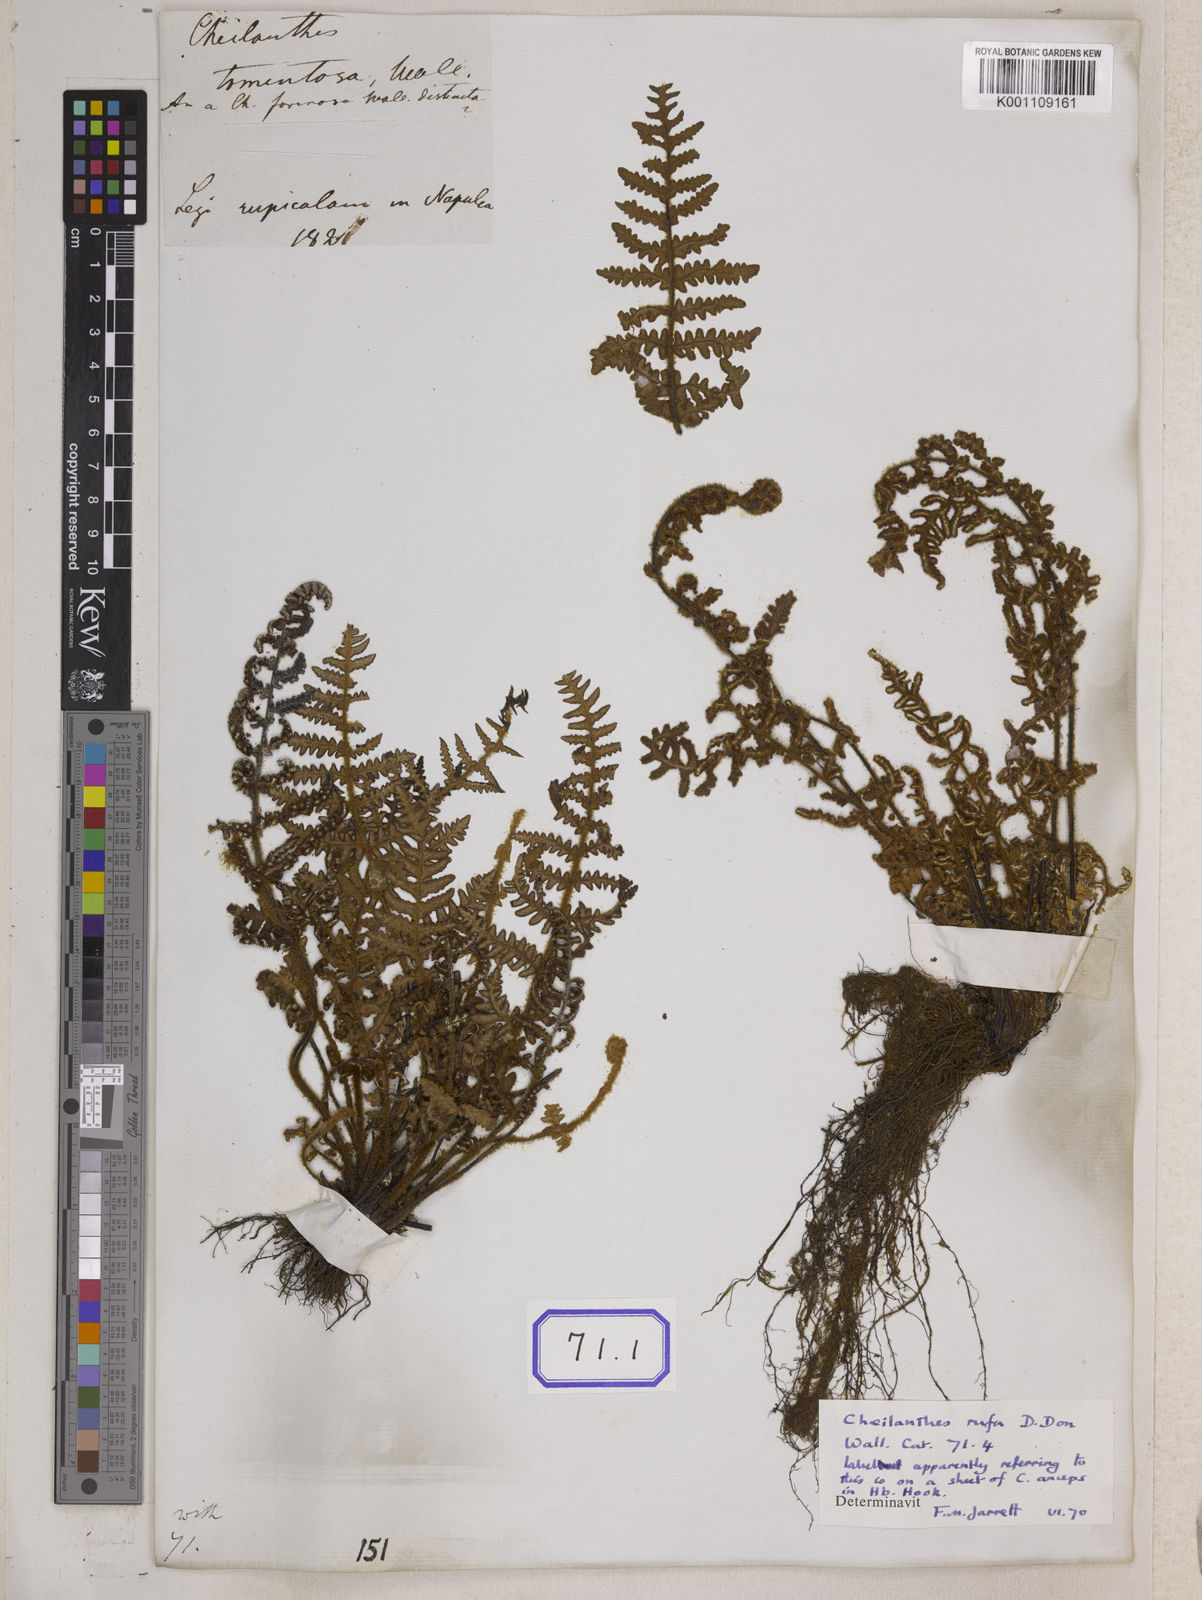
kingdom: Plantae
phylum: Tracheophyta
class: Polypodiopsida
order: Polypodiales
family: Pteridaceae
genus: Argyrochosma
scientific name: Argyrochosma dealbata
